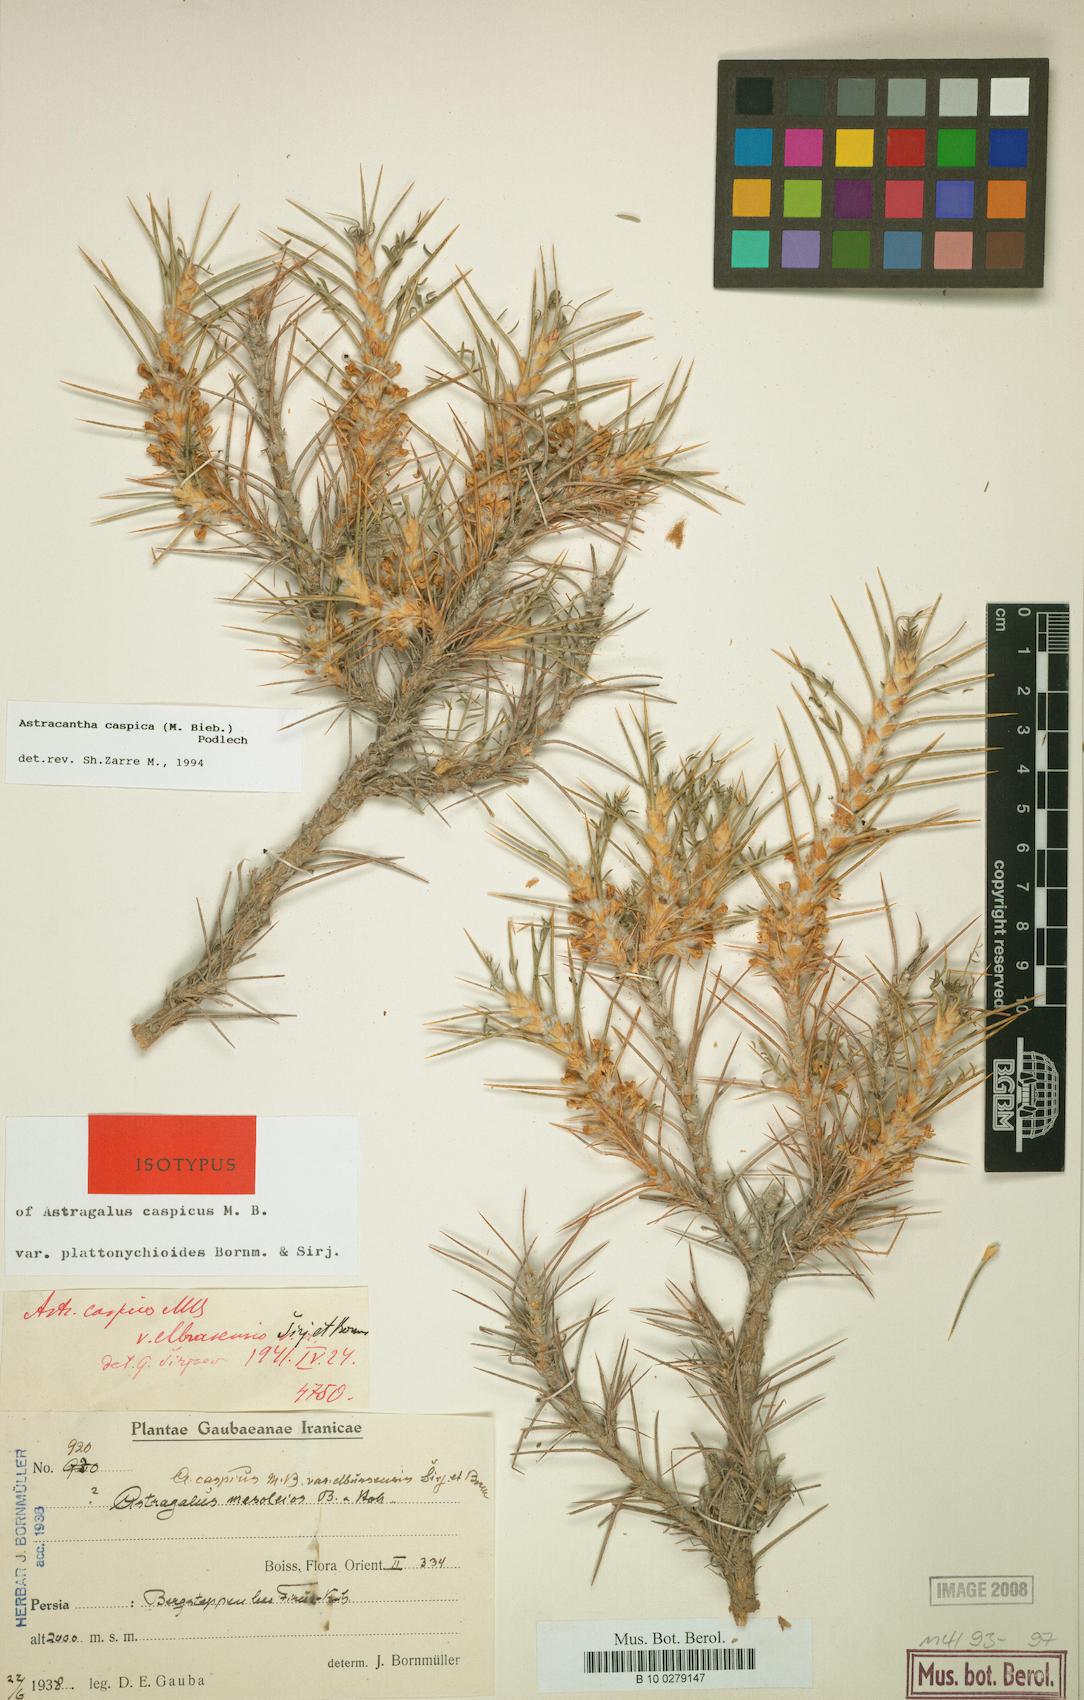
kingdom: Plantae
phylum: Tracheophyta
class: Magnoliopsida
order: Fabales
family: Fabaceae
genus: Astragalus
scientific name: Astragalus caspicus
